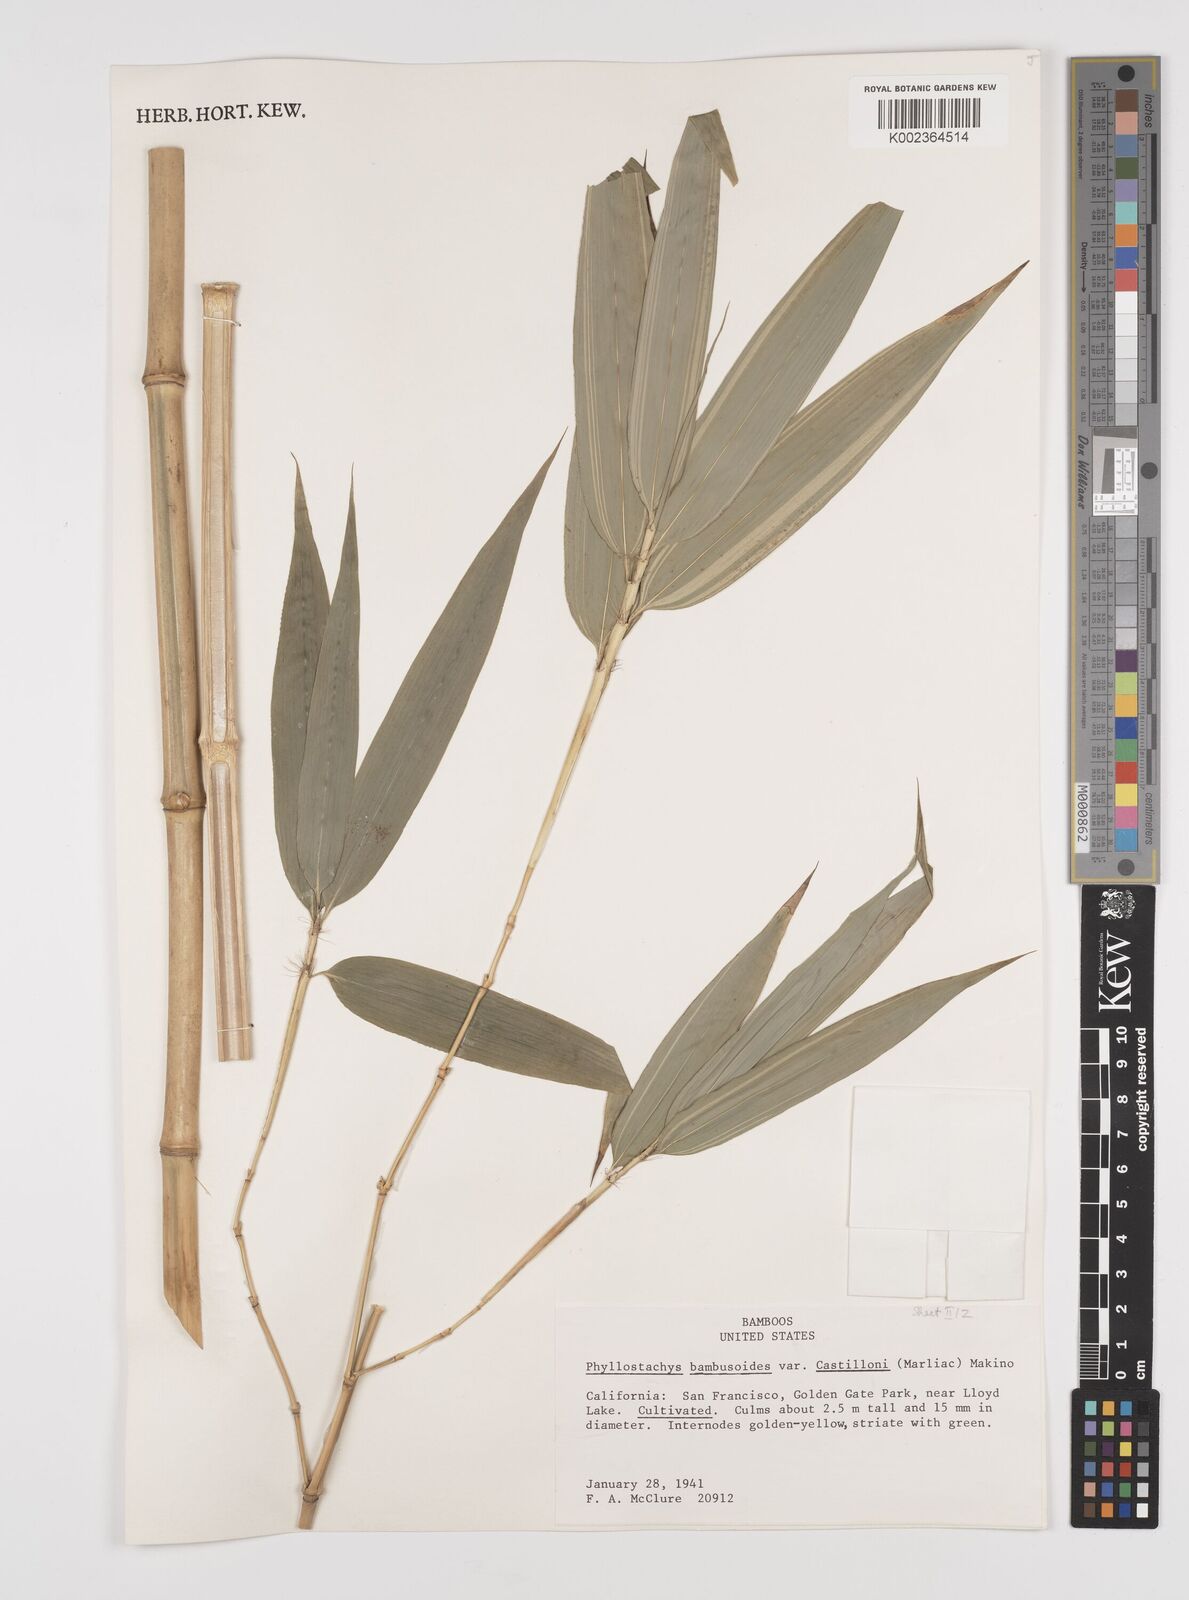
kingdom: Plantae
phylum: Tracheophyta
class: Liliopsida
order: Poales
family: Poaceae
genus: Phyllostachys
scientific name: Phyllostachys reticulata
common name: Bamboo
